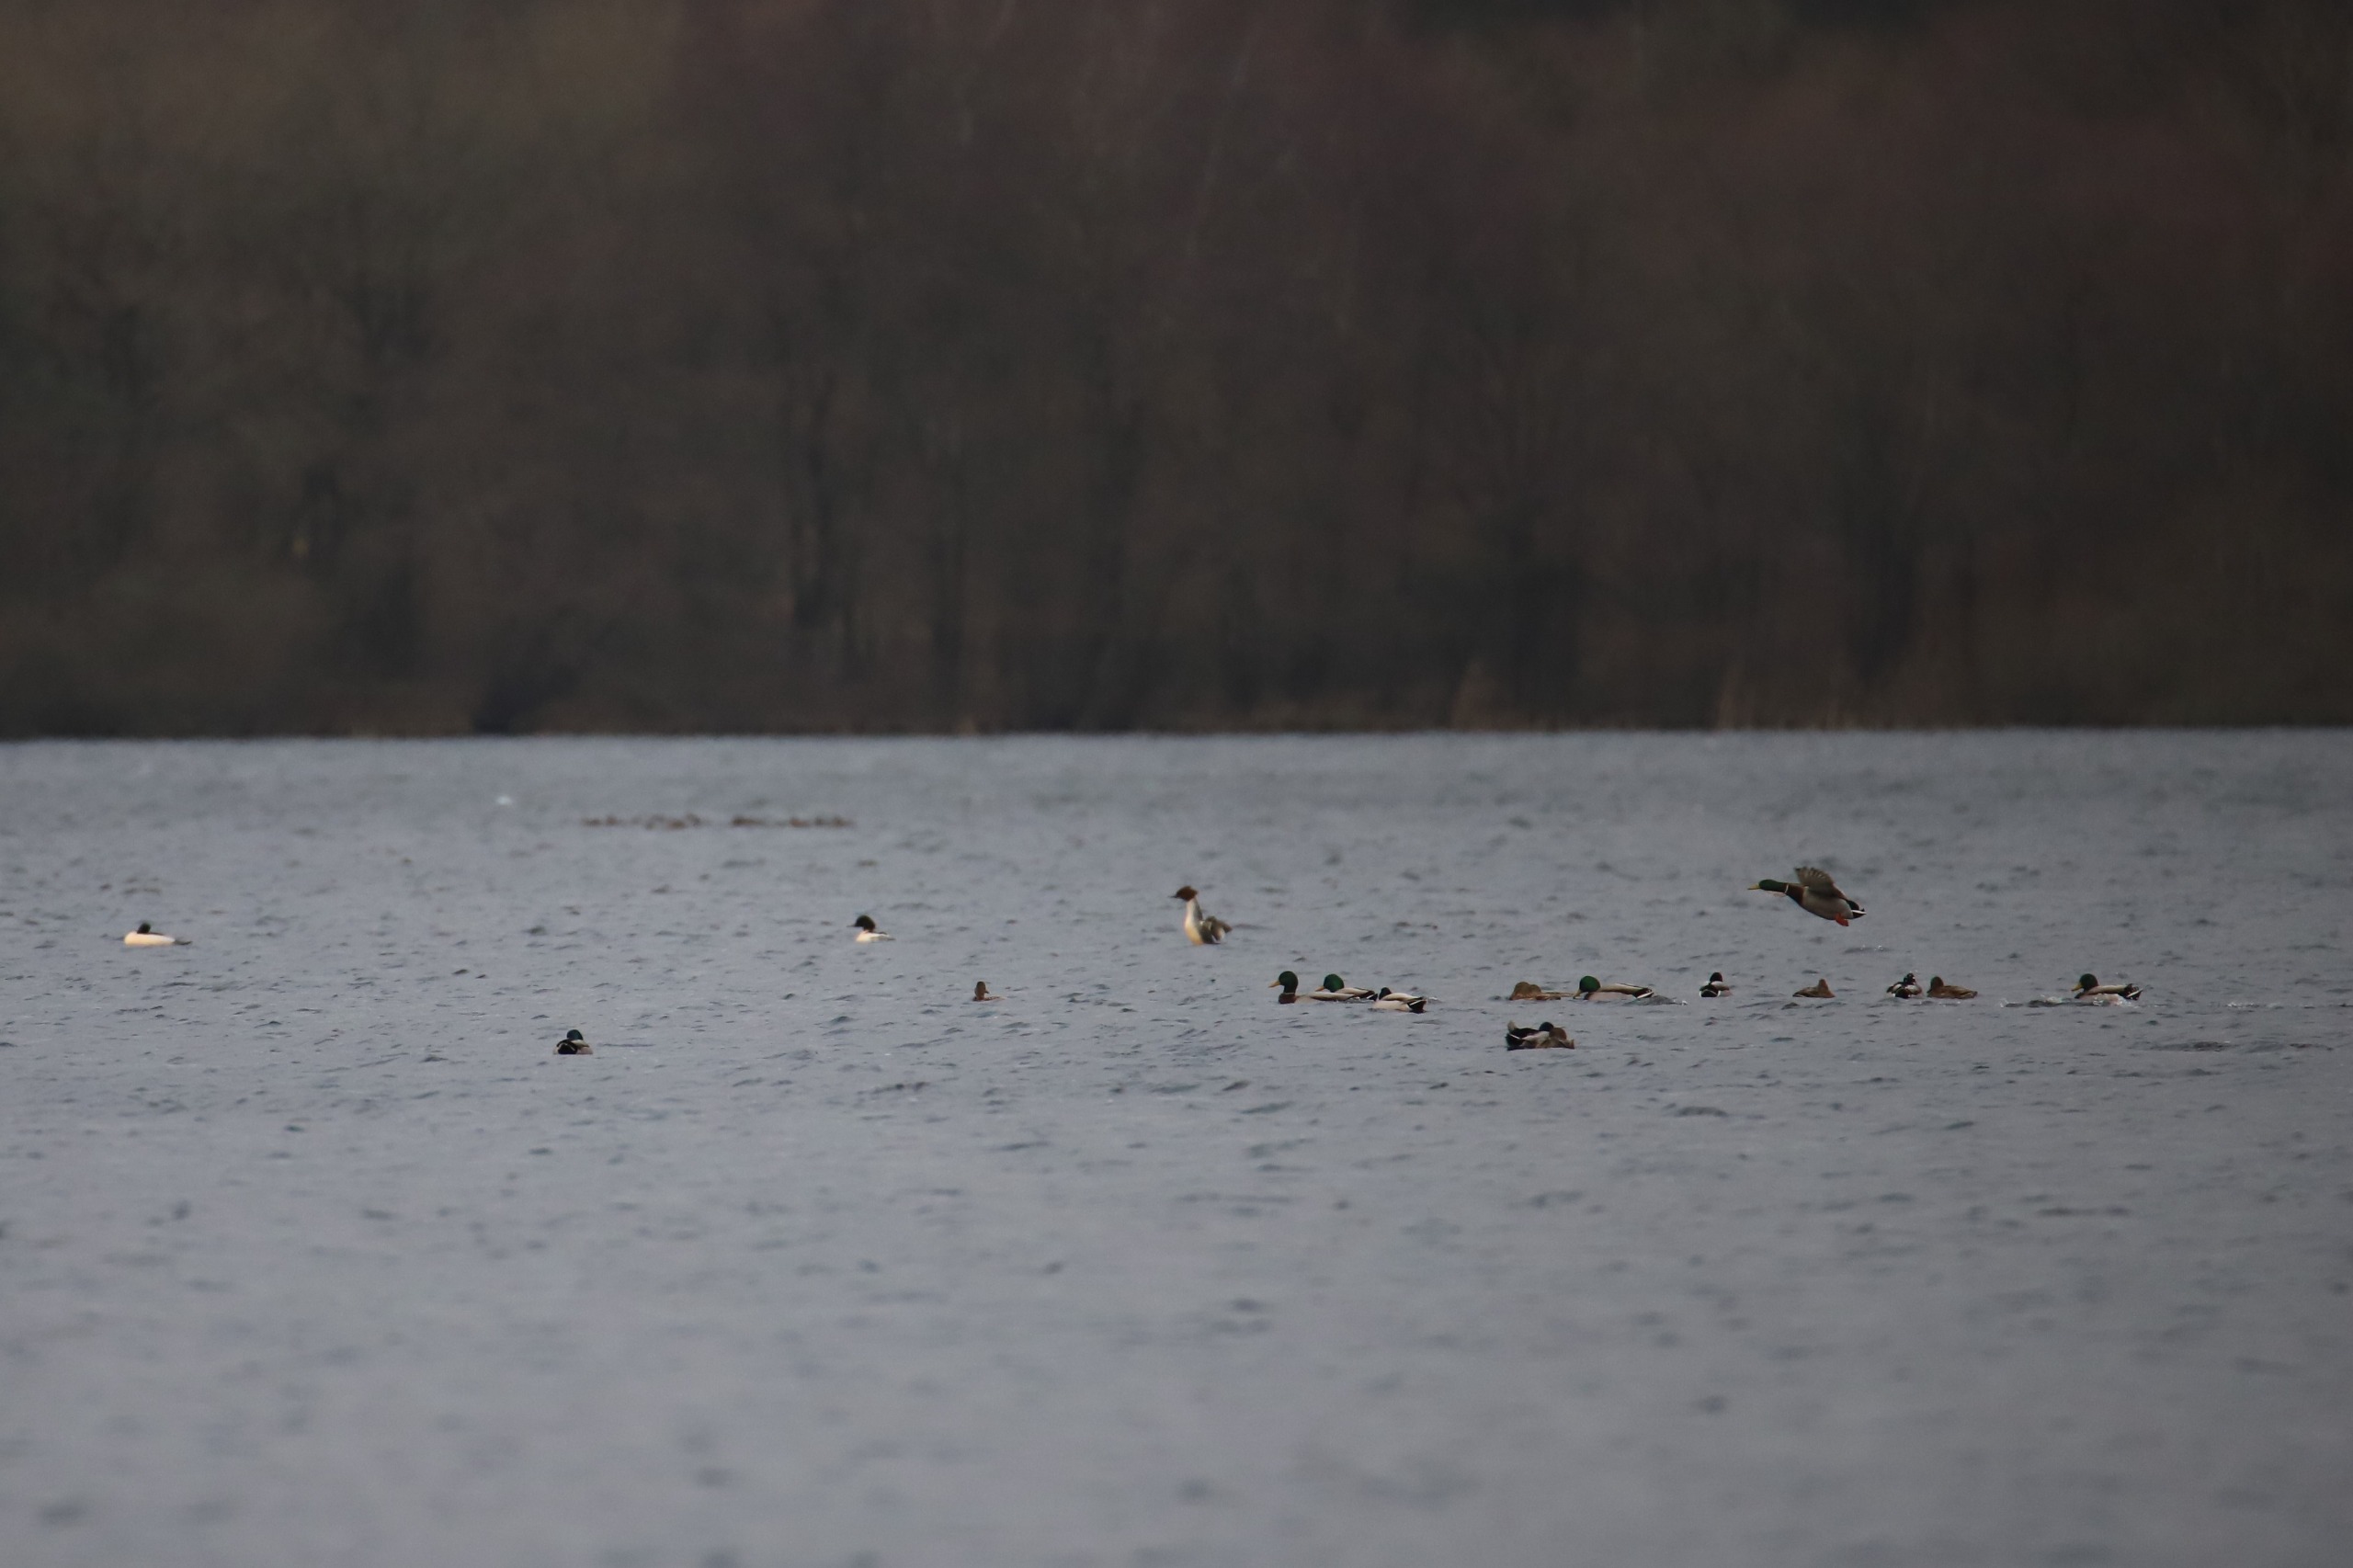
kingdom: Animalia
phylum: Chordata
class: Aves
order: Anseriformes
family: Anatidae
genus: Anas
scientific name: Anas platyrhynchos
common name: Gråand
